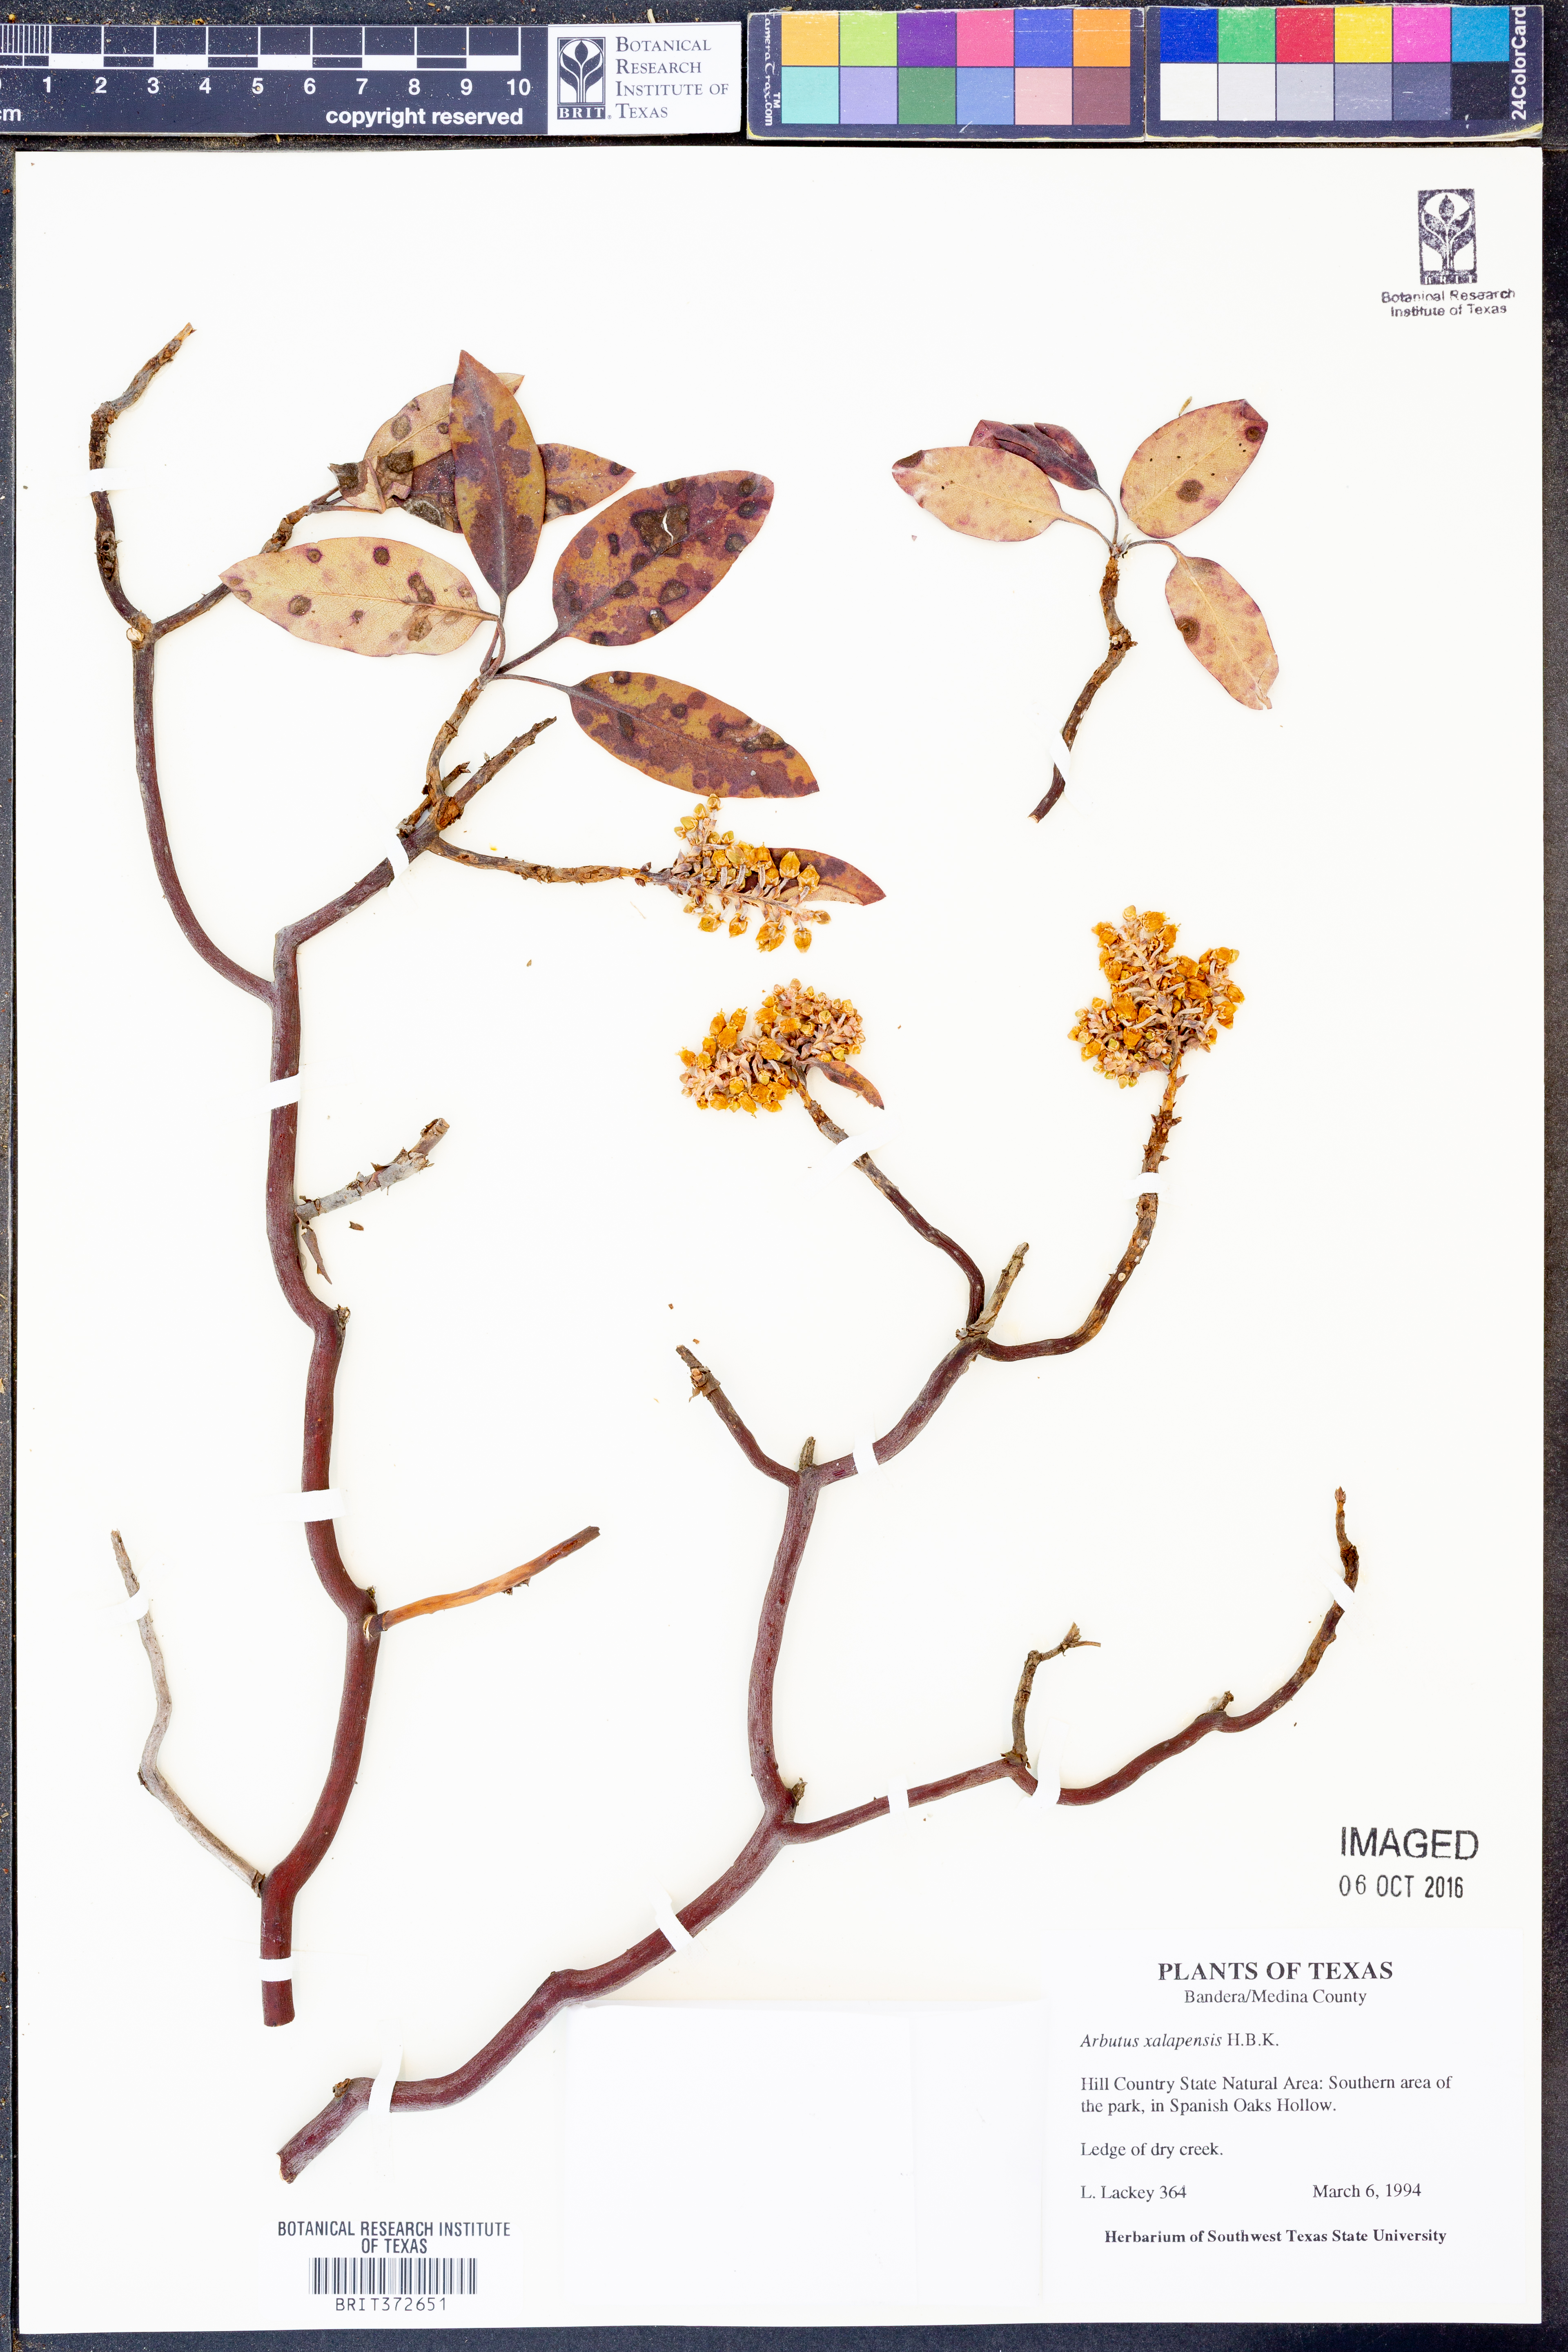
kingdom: Plantae
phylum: Tracheophyta
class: Magnoliopsida
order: Ericales
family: Ericaceae
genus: Arbutus
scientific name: Arbutus xalapensis
